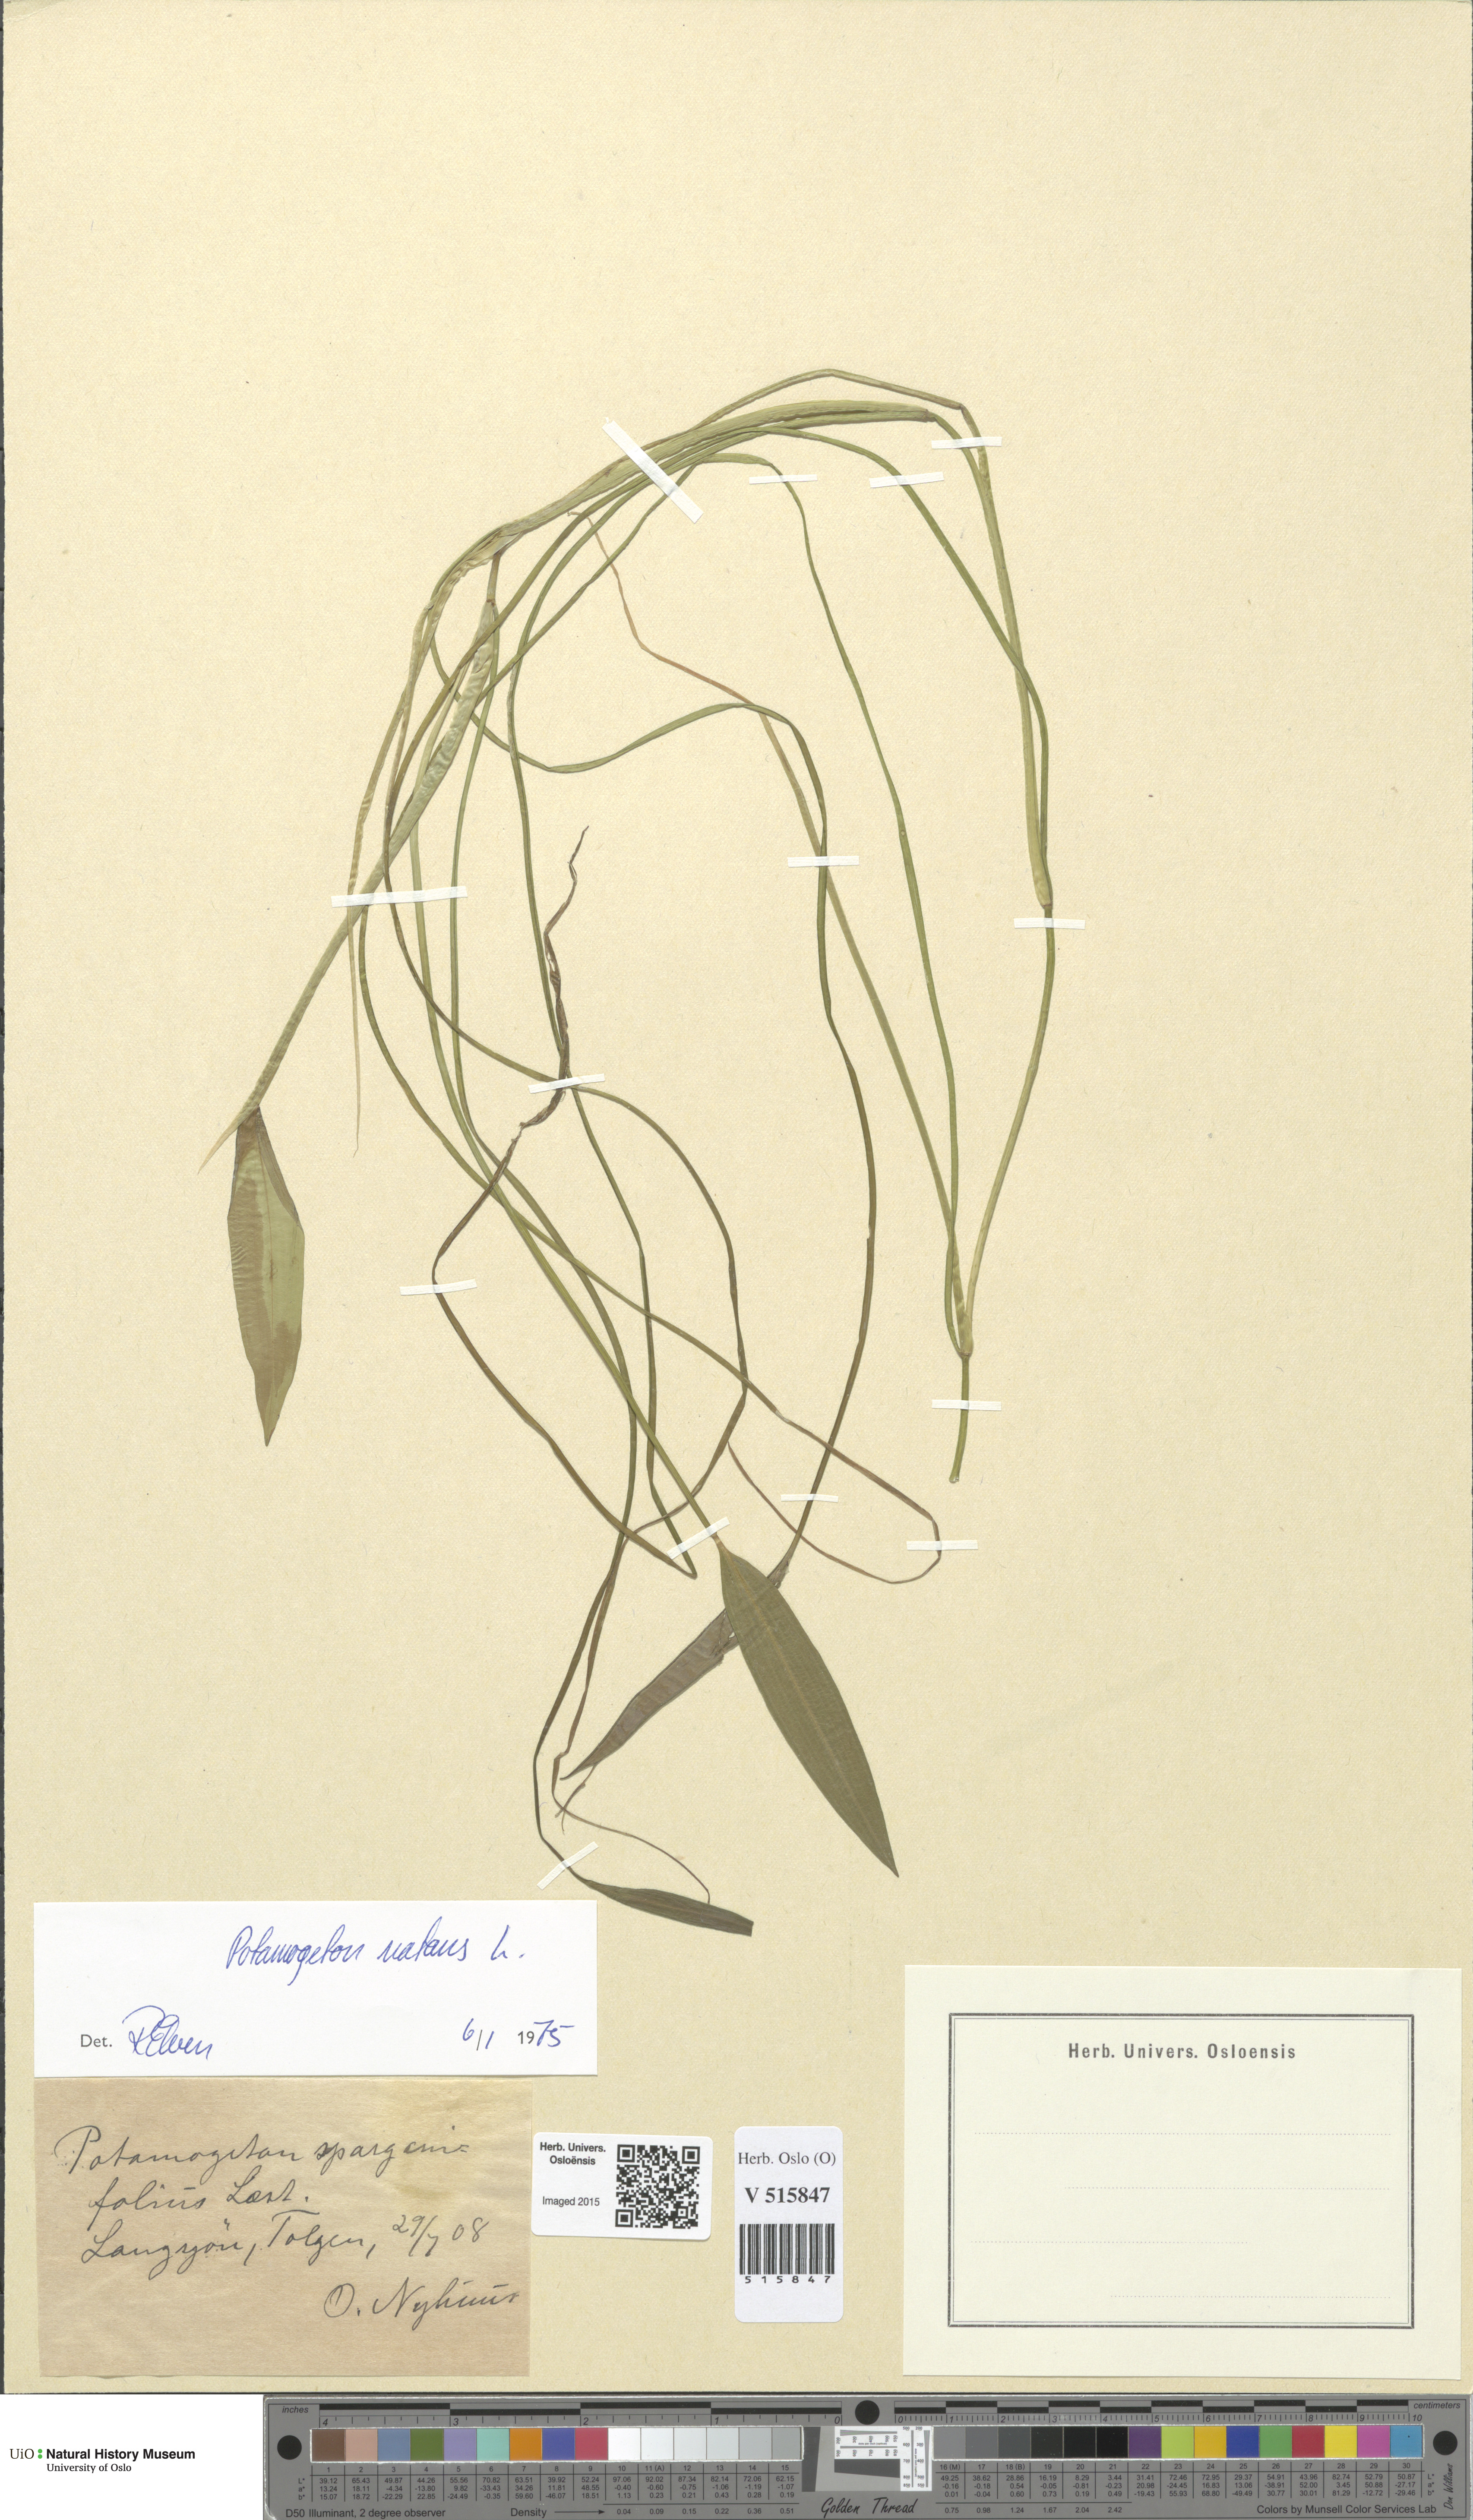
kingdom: Plantae
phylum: Tracheophyta
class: Liliopsida
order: Alismatales
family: Potamogetonaceae
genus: Potamogeton
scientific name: Potamogeton natans
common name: Broad-leaved pondweed
